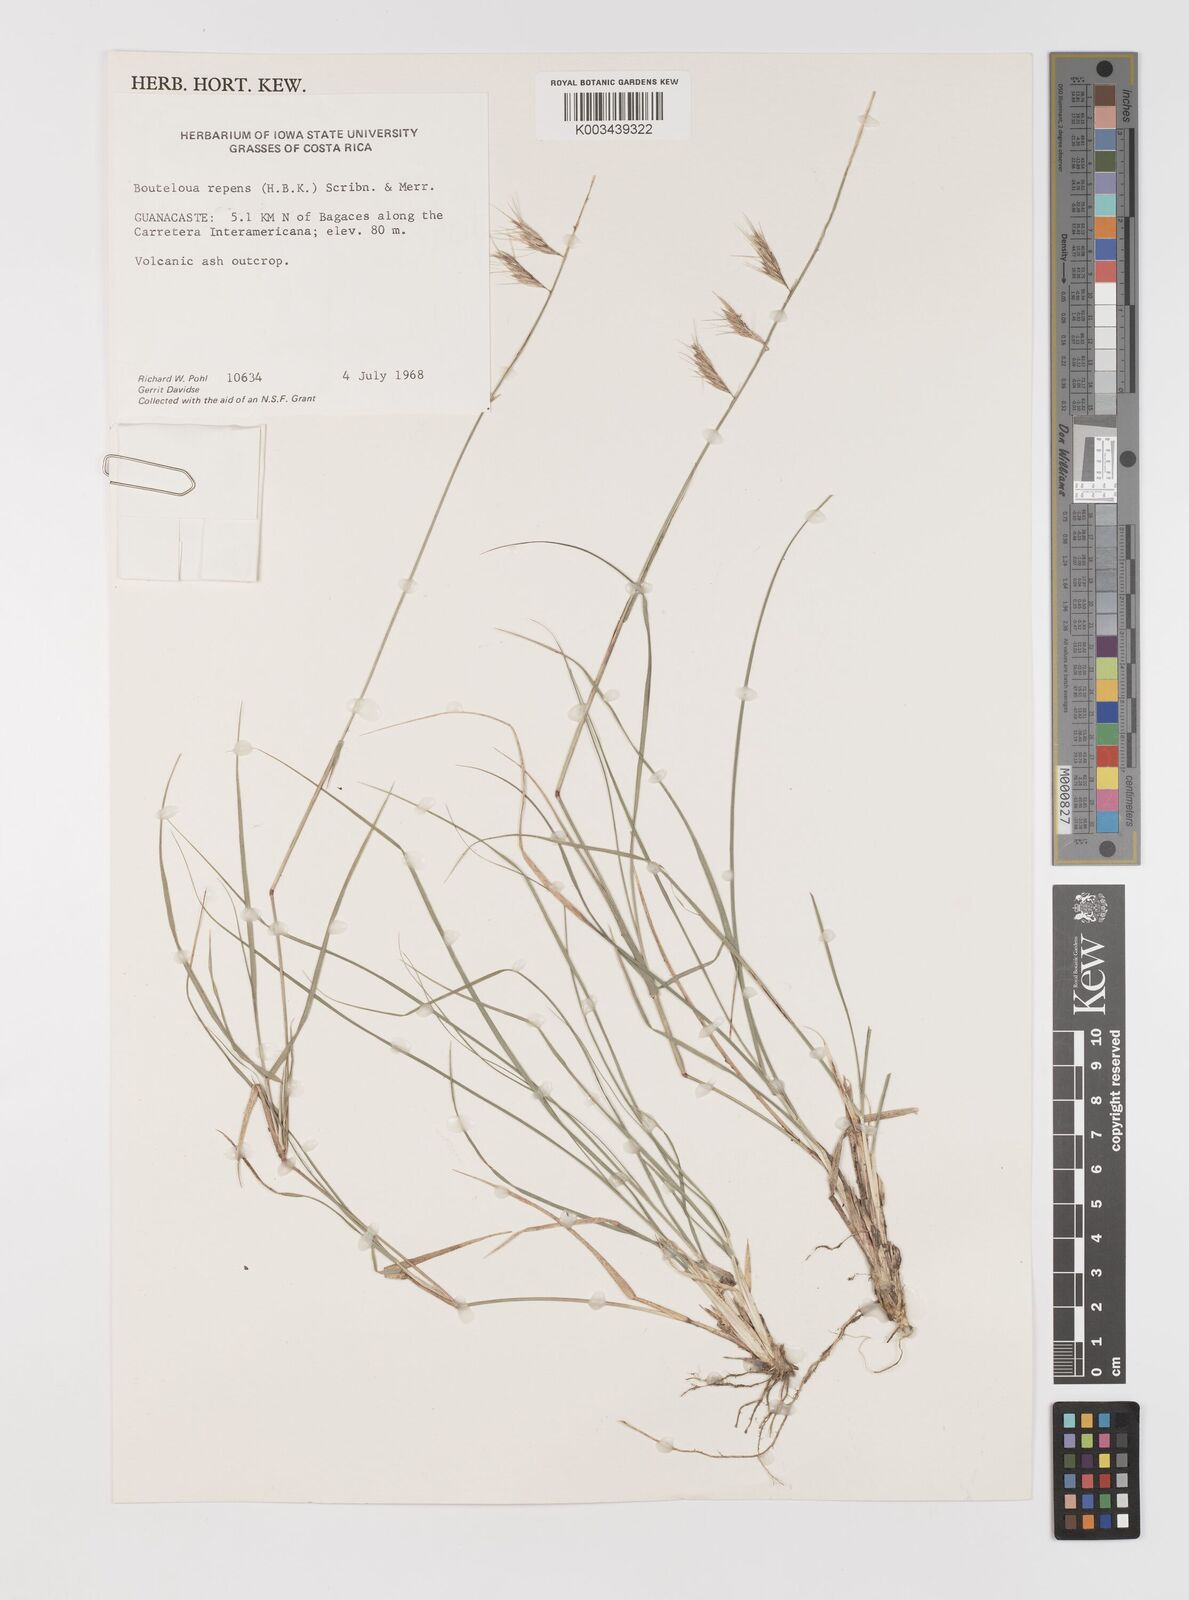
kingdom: Plantae
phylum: Tracheophyta
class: Liliopsida
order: Poales
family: Poaceae
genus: Bouteloua
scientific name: Bouteloua repens
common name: Slender grama
